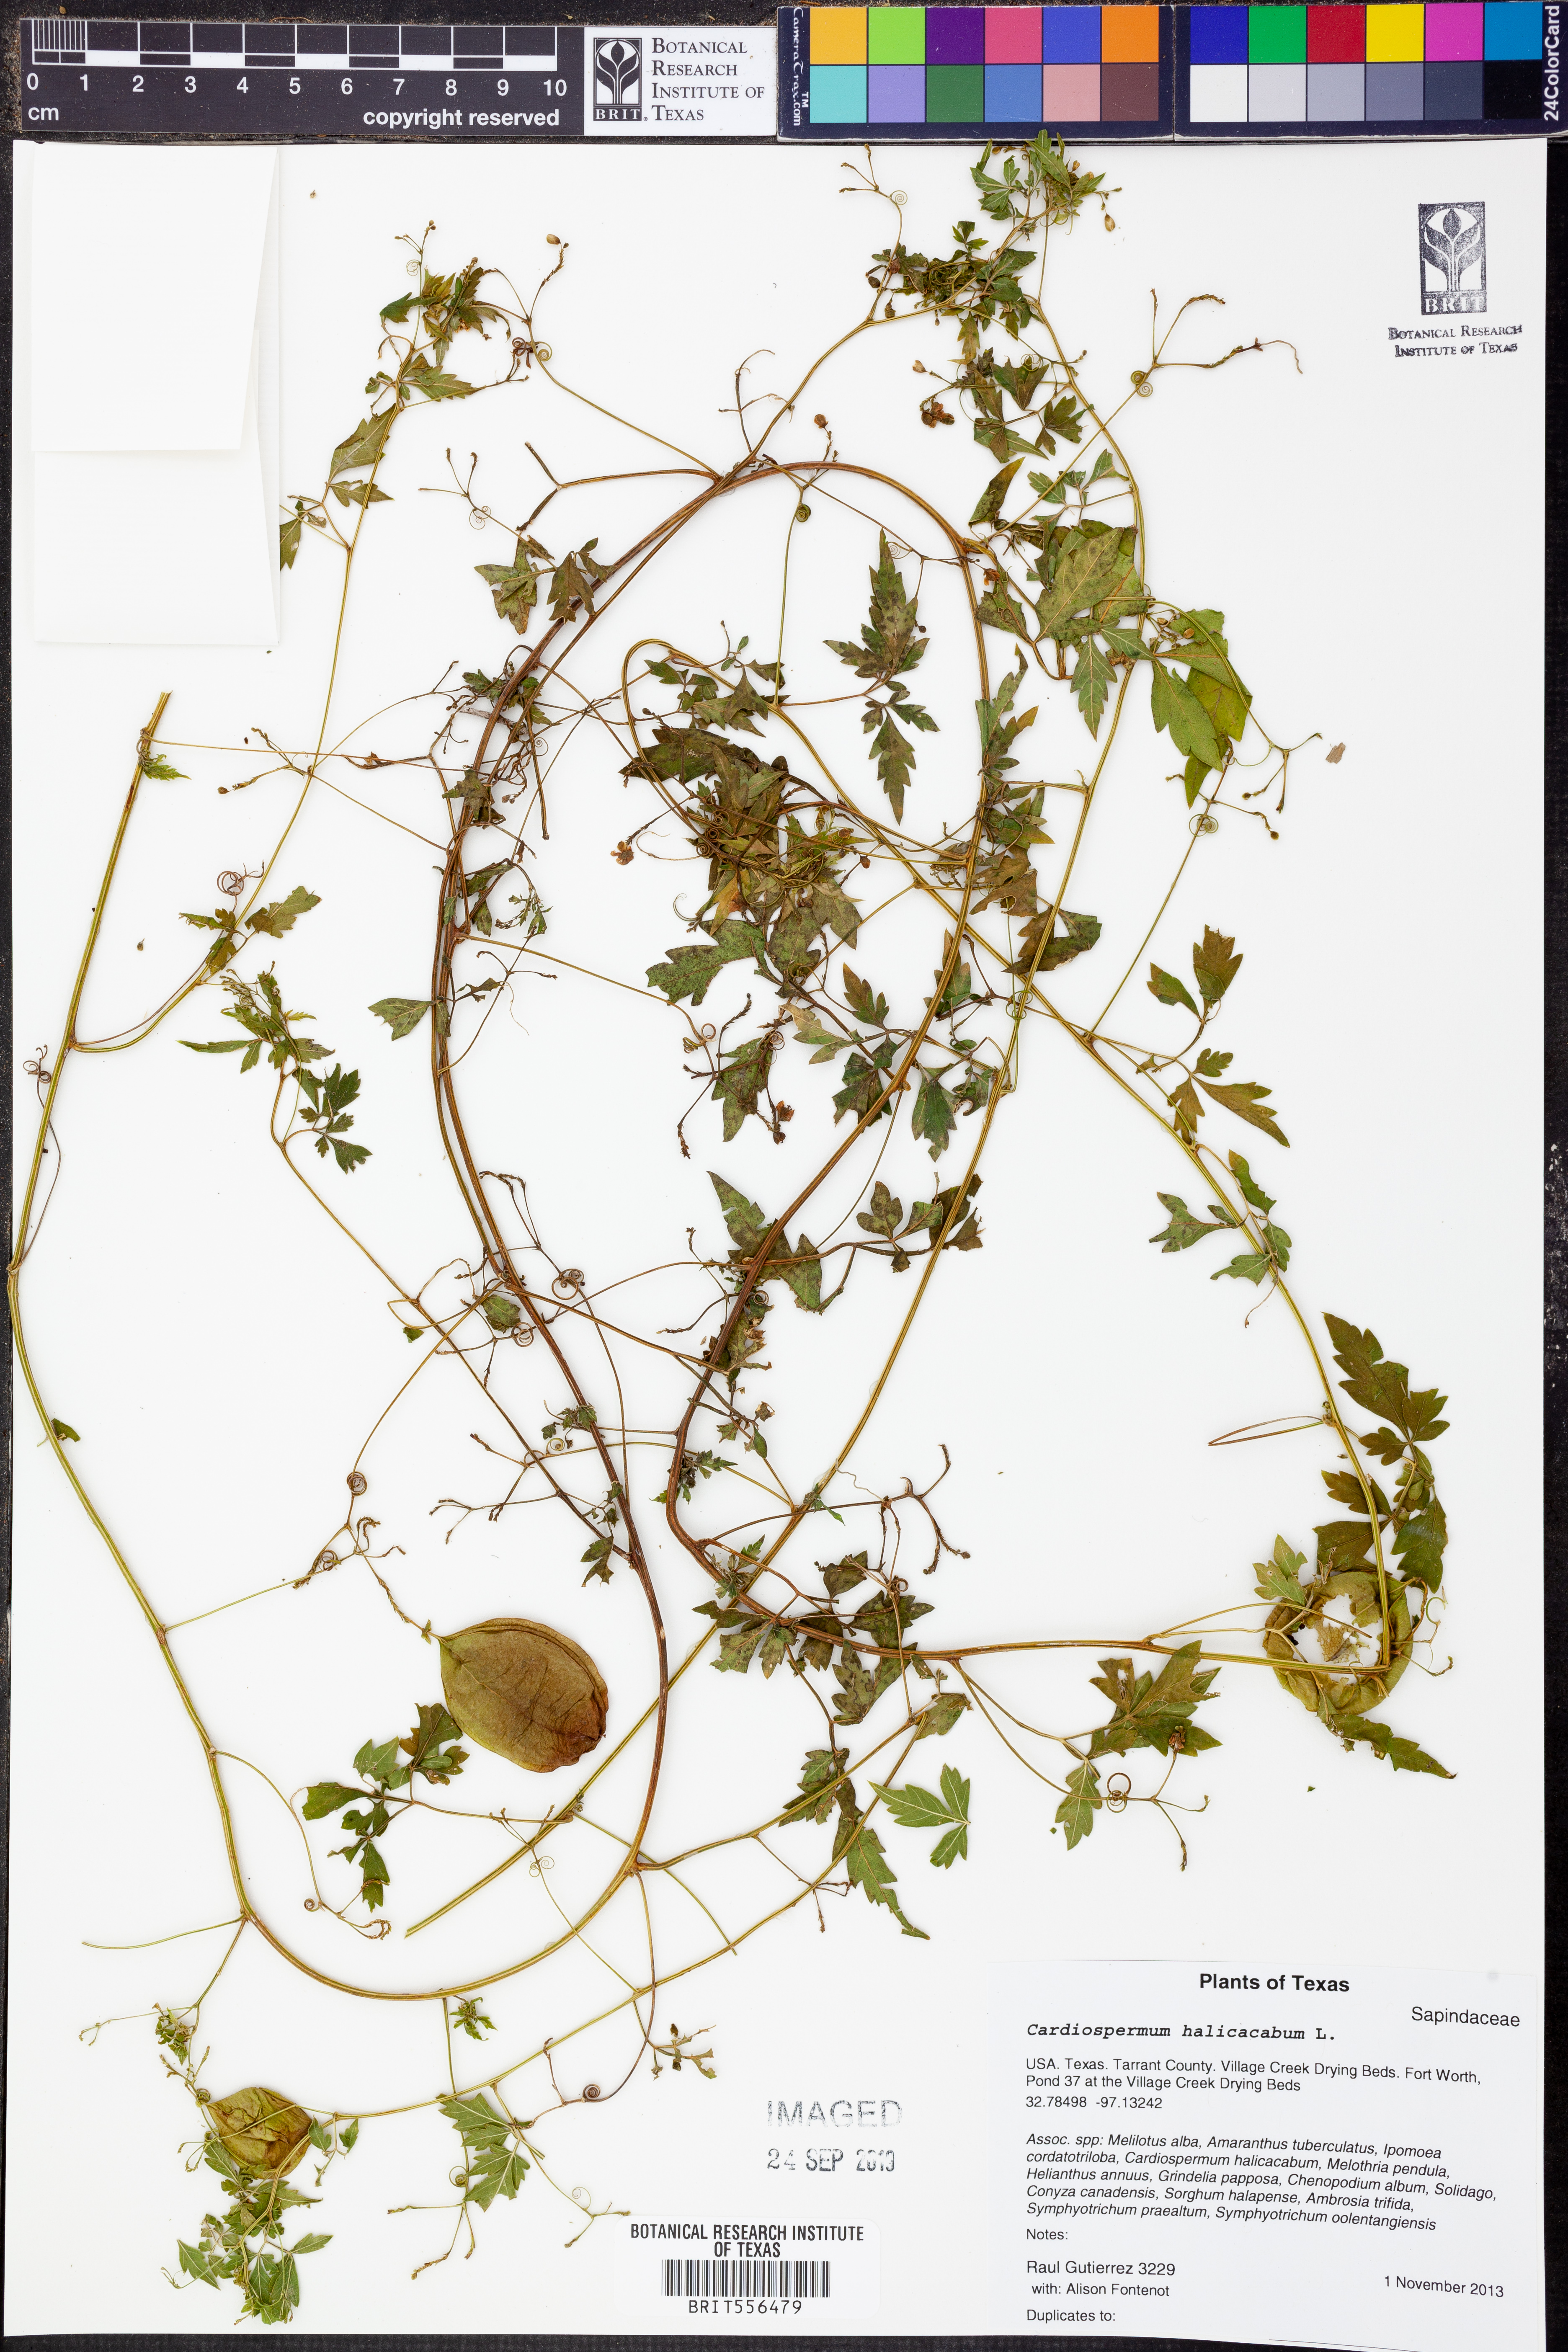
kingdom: Plantae
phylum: Tracheophyta
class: Magnoliopsida
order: Sapindales
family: Sapindaceae
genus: Cardiospermum
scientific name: Cardiospermum halicacabum
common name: Balloon vine
